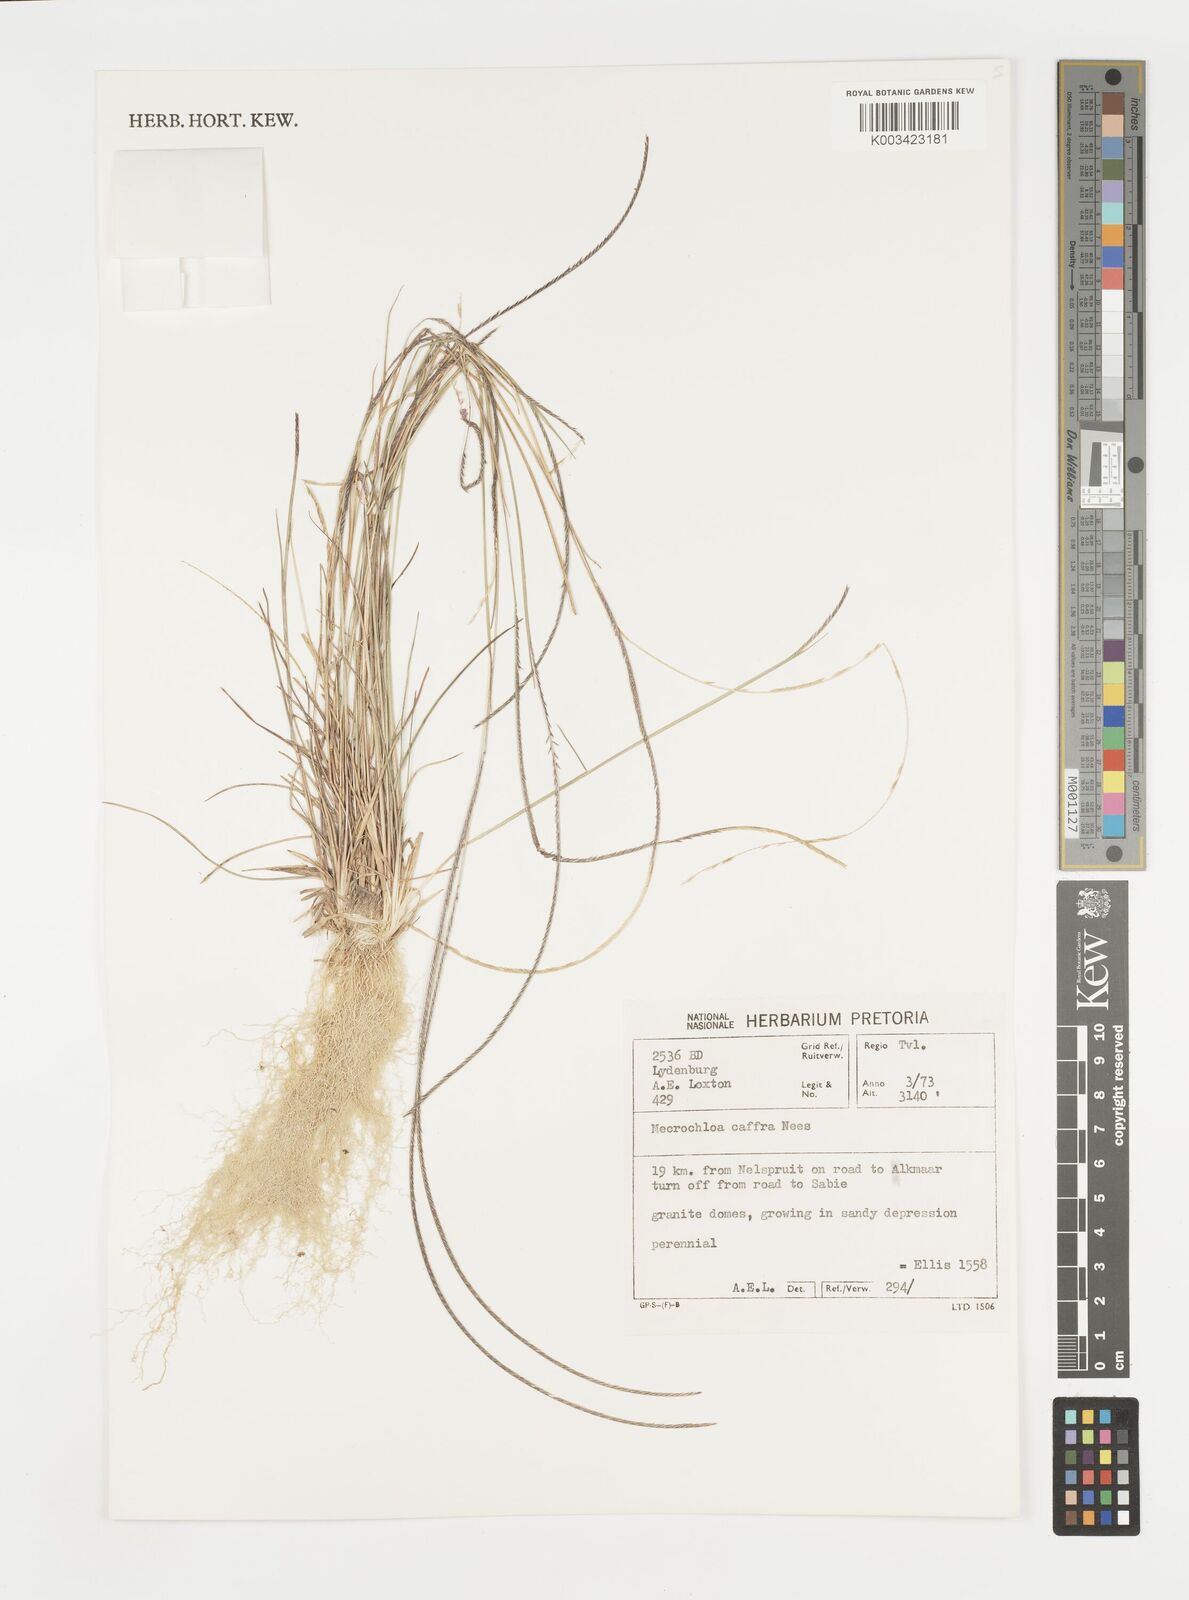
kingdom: Plantae
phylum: Tracheophyta
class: Liliopsida
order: Poales
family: Poaceae
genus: Microchloa
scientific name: Microchloa caffra
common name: Pincushion grass
